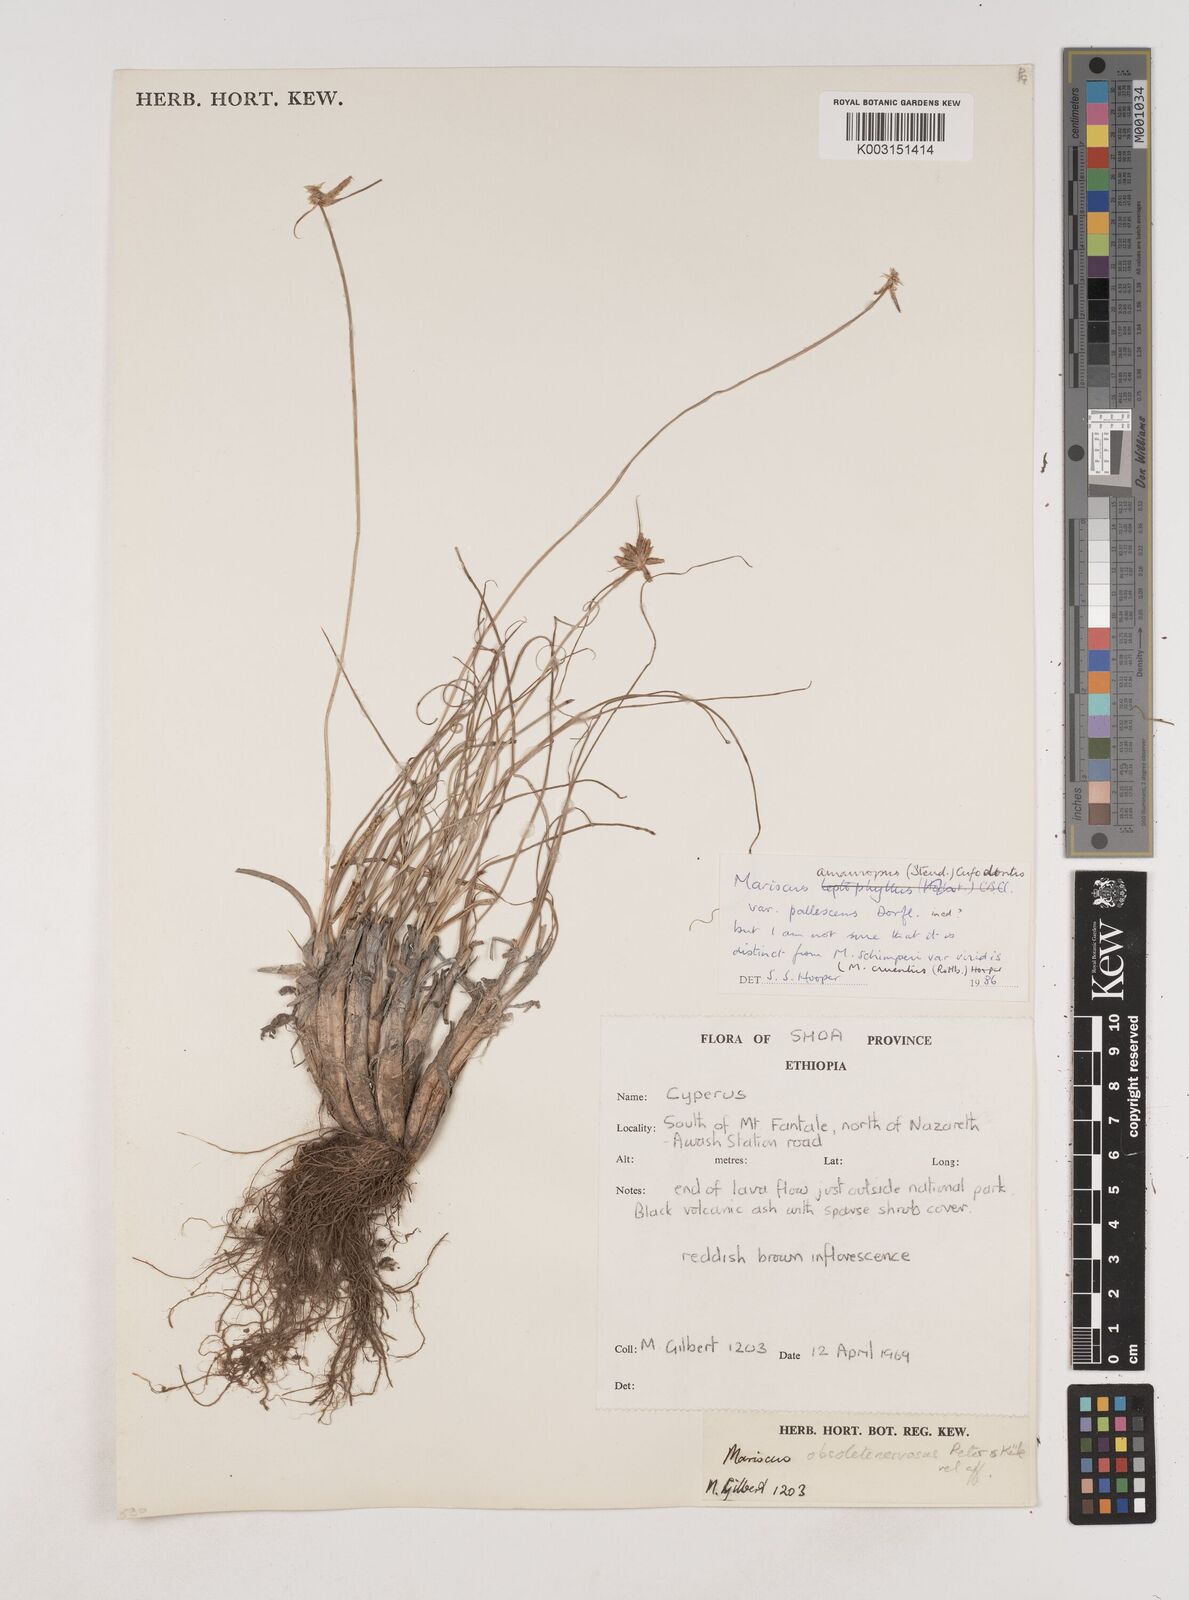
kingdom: Plantae
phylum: Tracheophyta
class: Liliopsida
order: Poales
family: Cyperaceae
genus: Cyperus
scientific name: Cyperus amauropus
